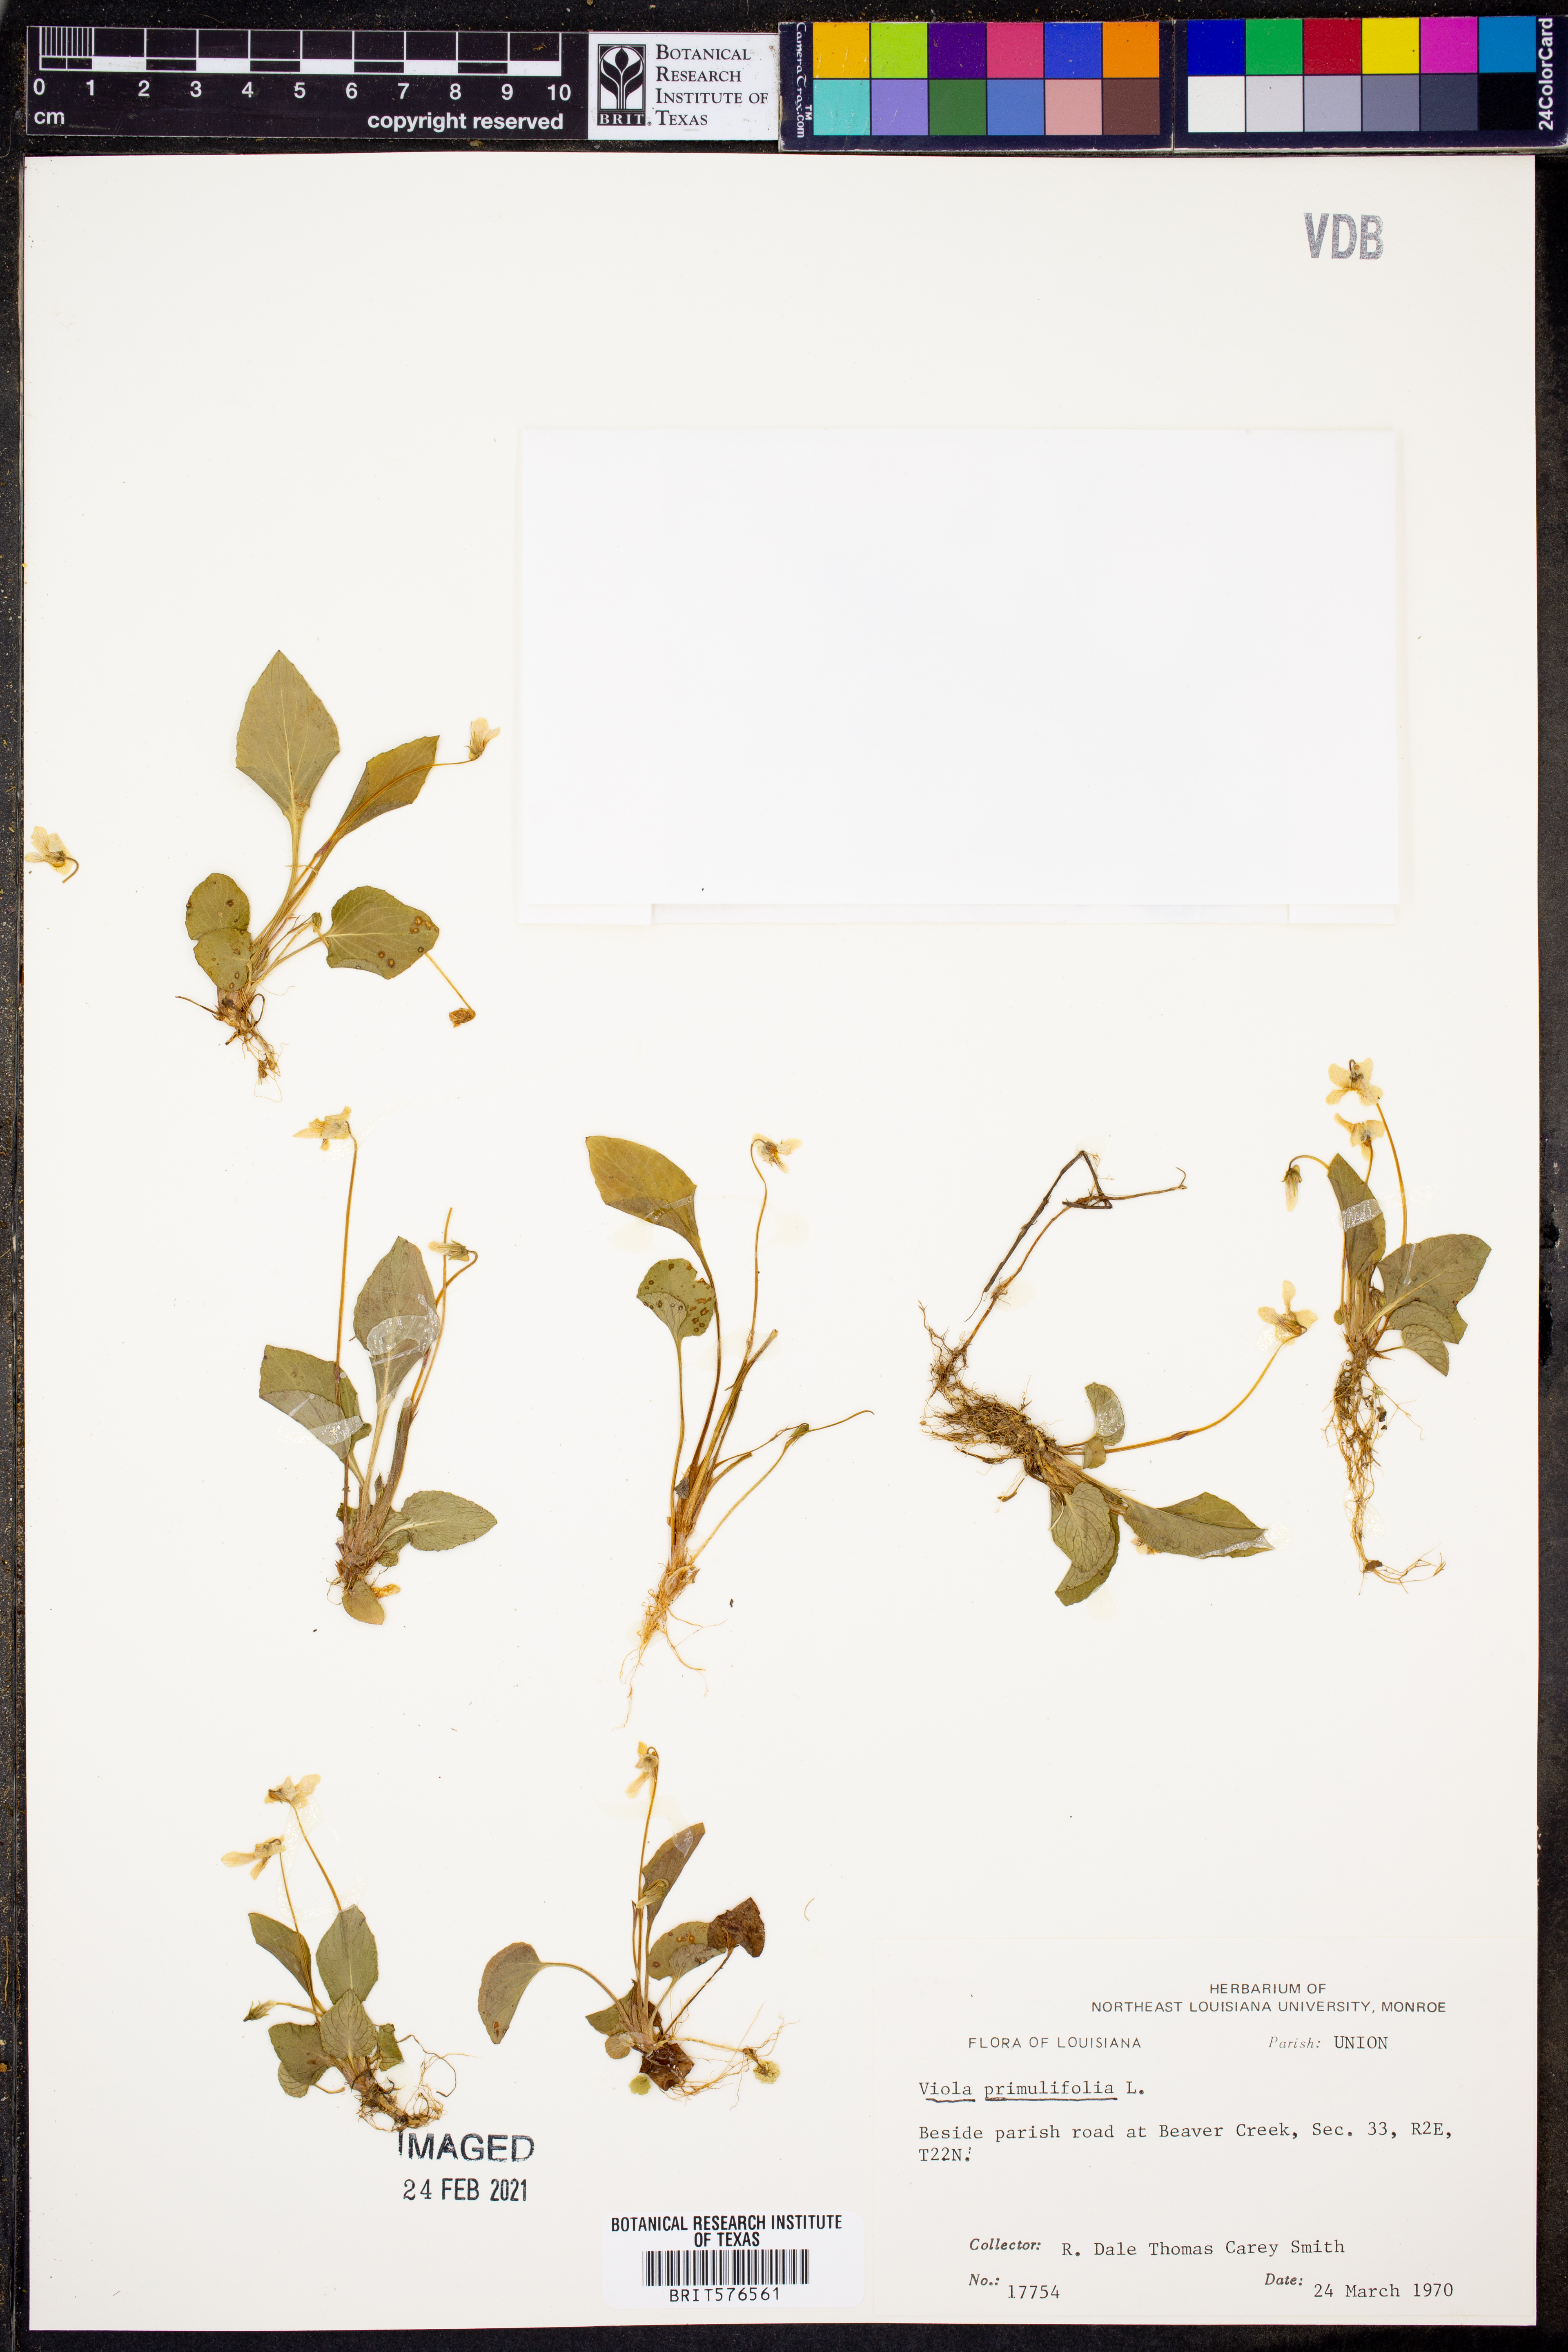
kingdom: Plantae
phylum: Tracheophyta
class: Magnoliopsida
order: Malpighiales
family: Violaceae
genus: Viola
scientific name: Viola primulifolia
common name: Primrose-leaf violet
